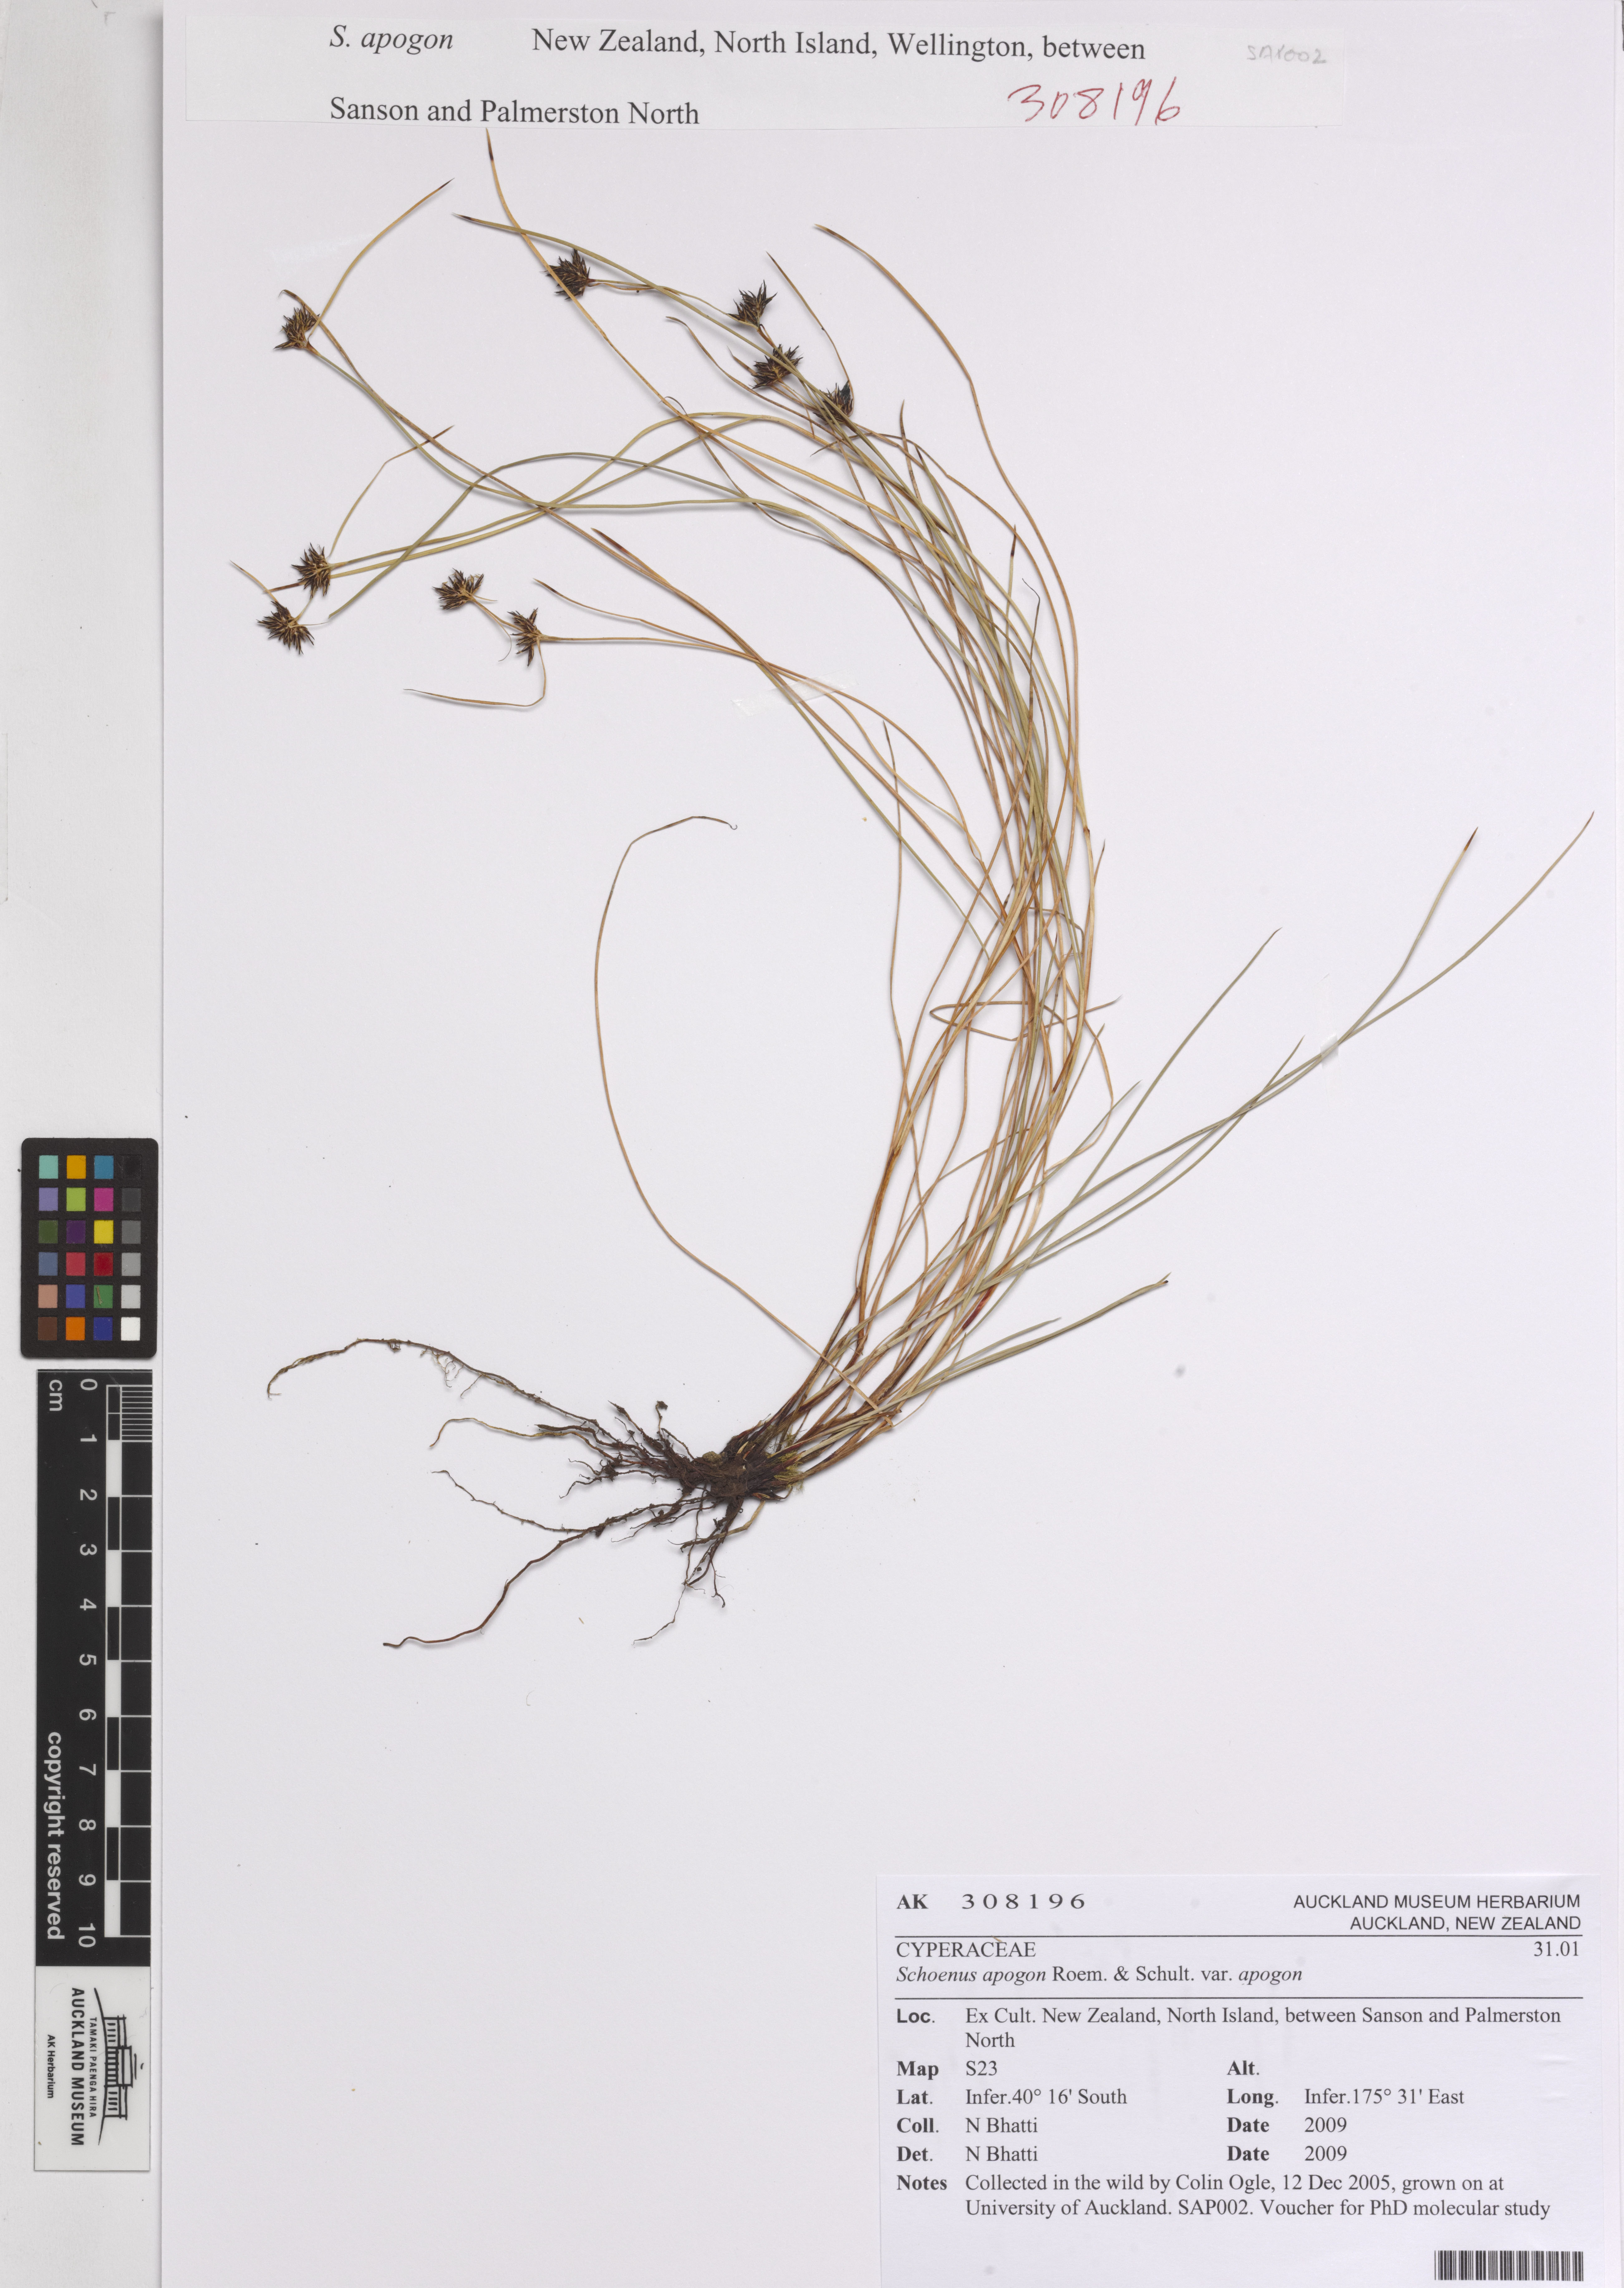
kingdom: Plantae
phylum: Tracheophyta
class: Liliopsida
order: Poales
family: Cyperaceae
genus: Schoenus
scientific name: Schoenus apogon
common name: Smooth bogrush
